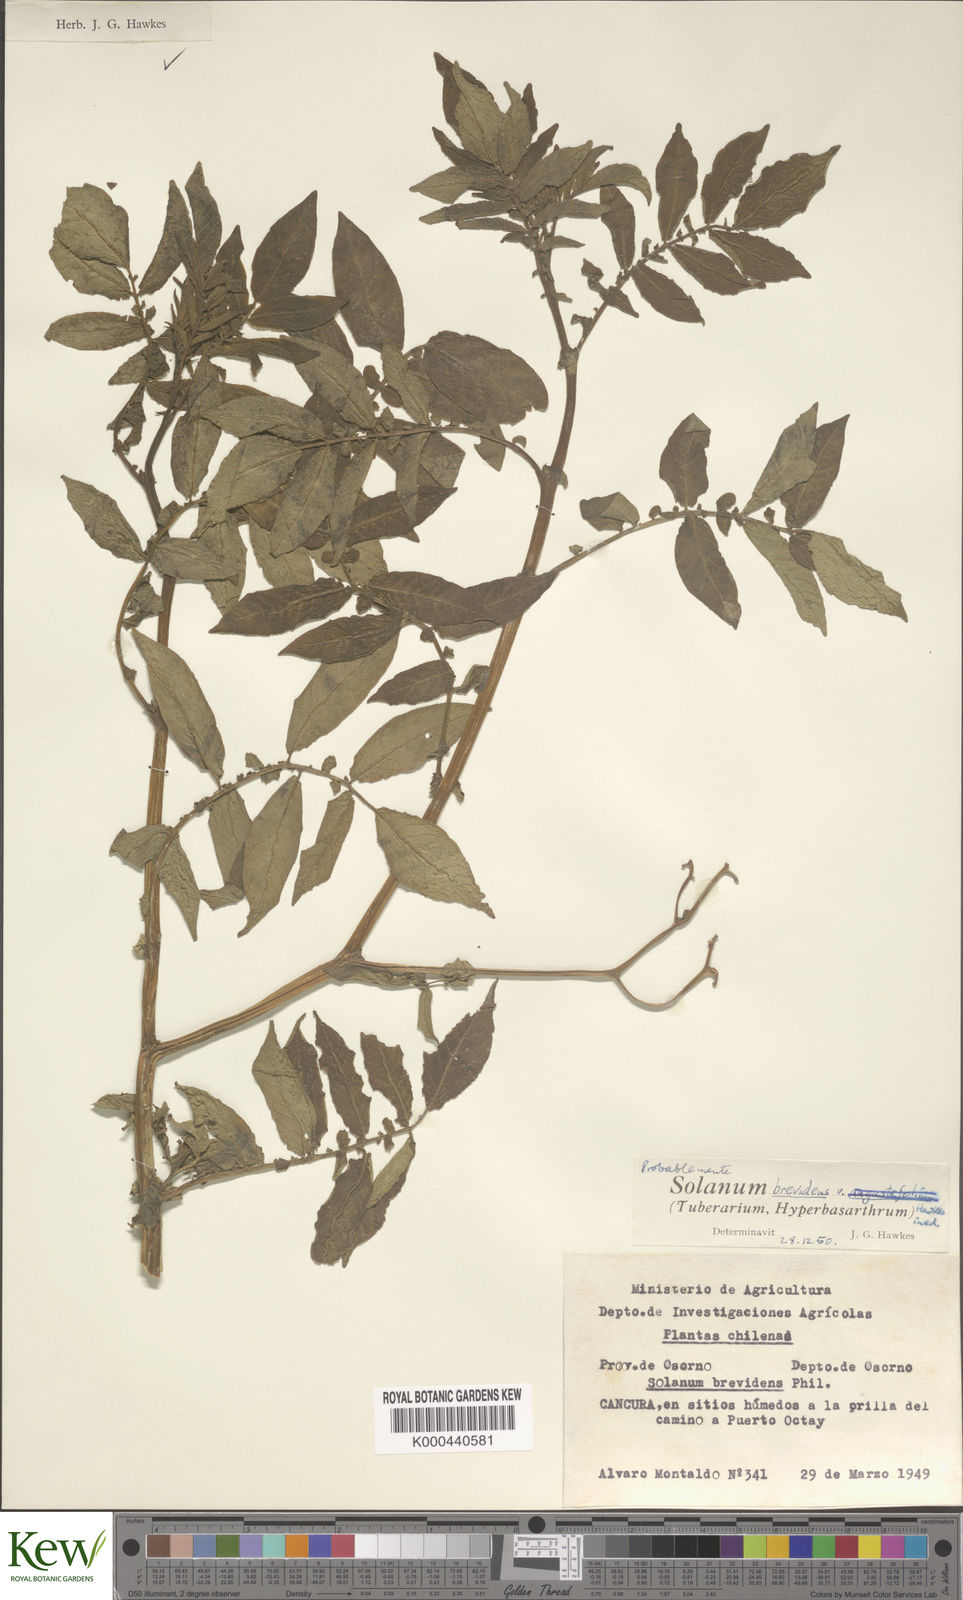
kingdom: Plantae
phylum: Tracheophyta
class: Magnoliopsida
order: Solanales
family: Solanaceae
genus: Solanum
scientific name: Solanum palustre
